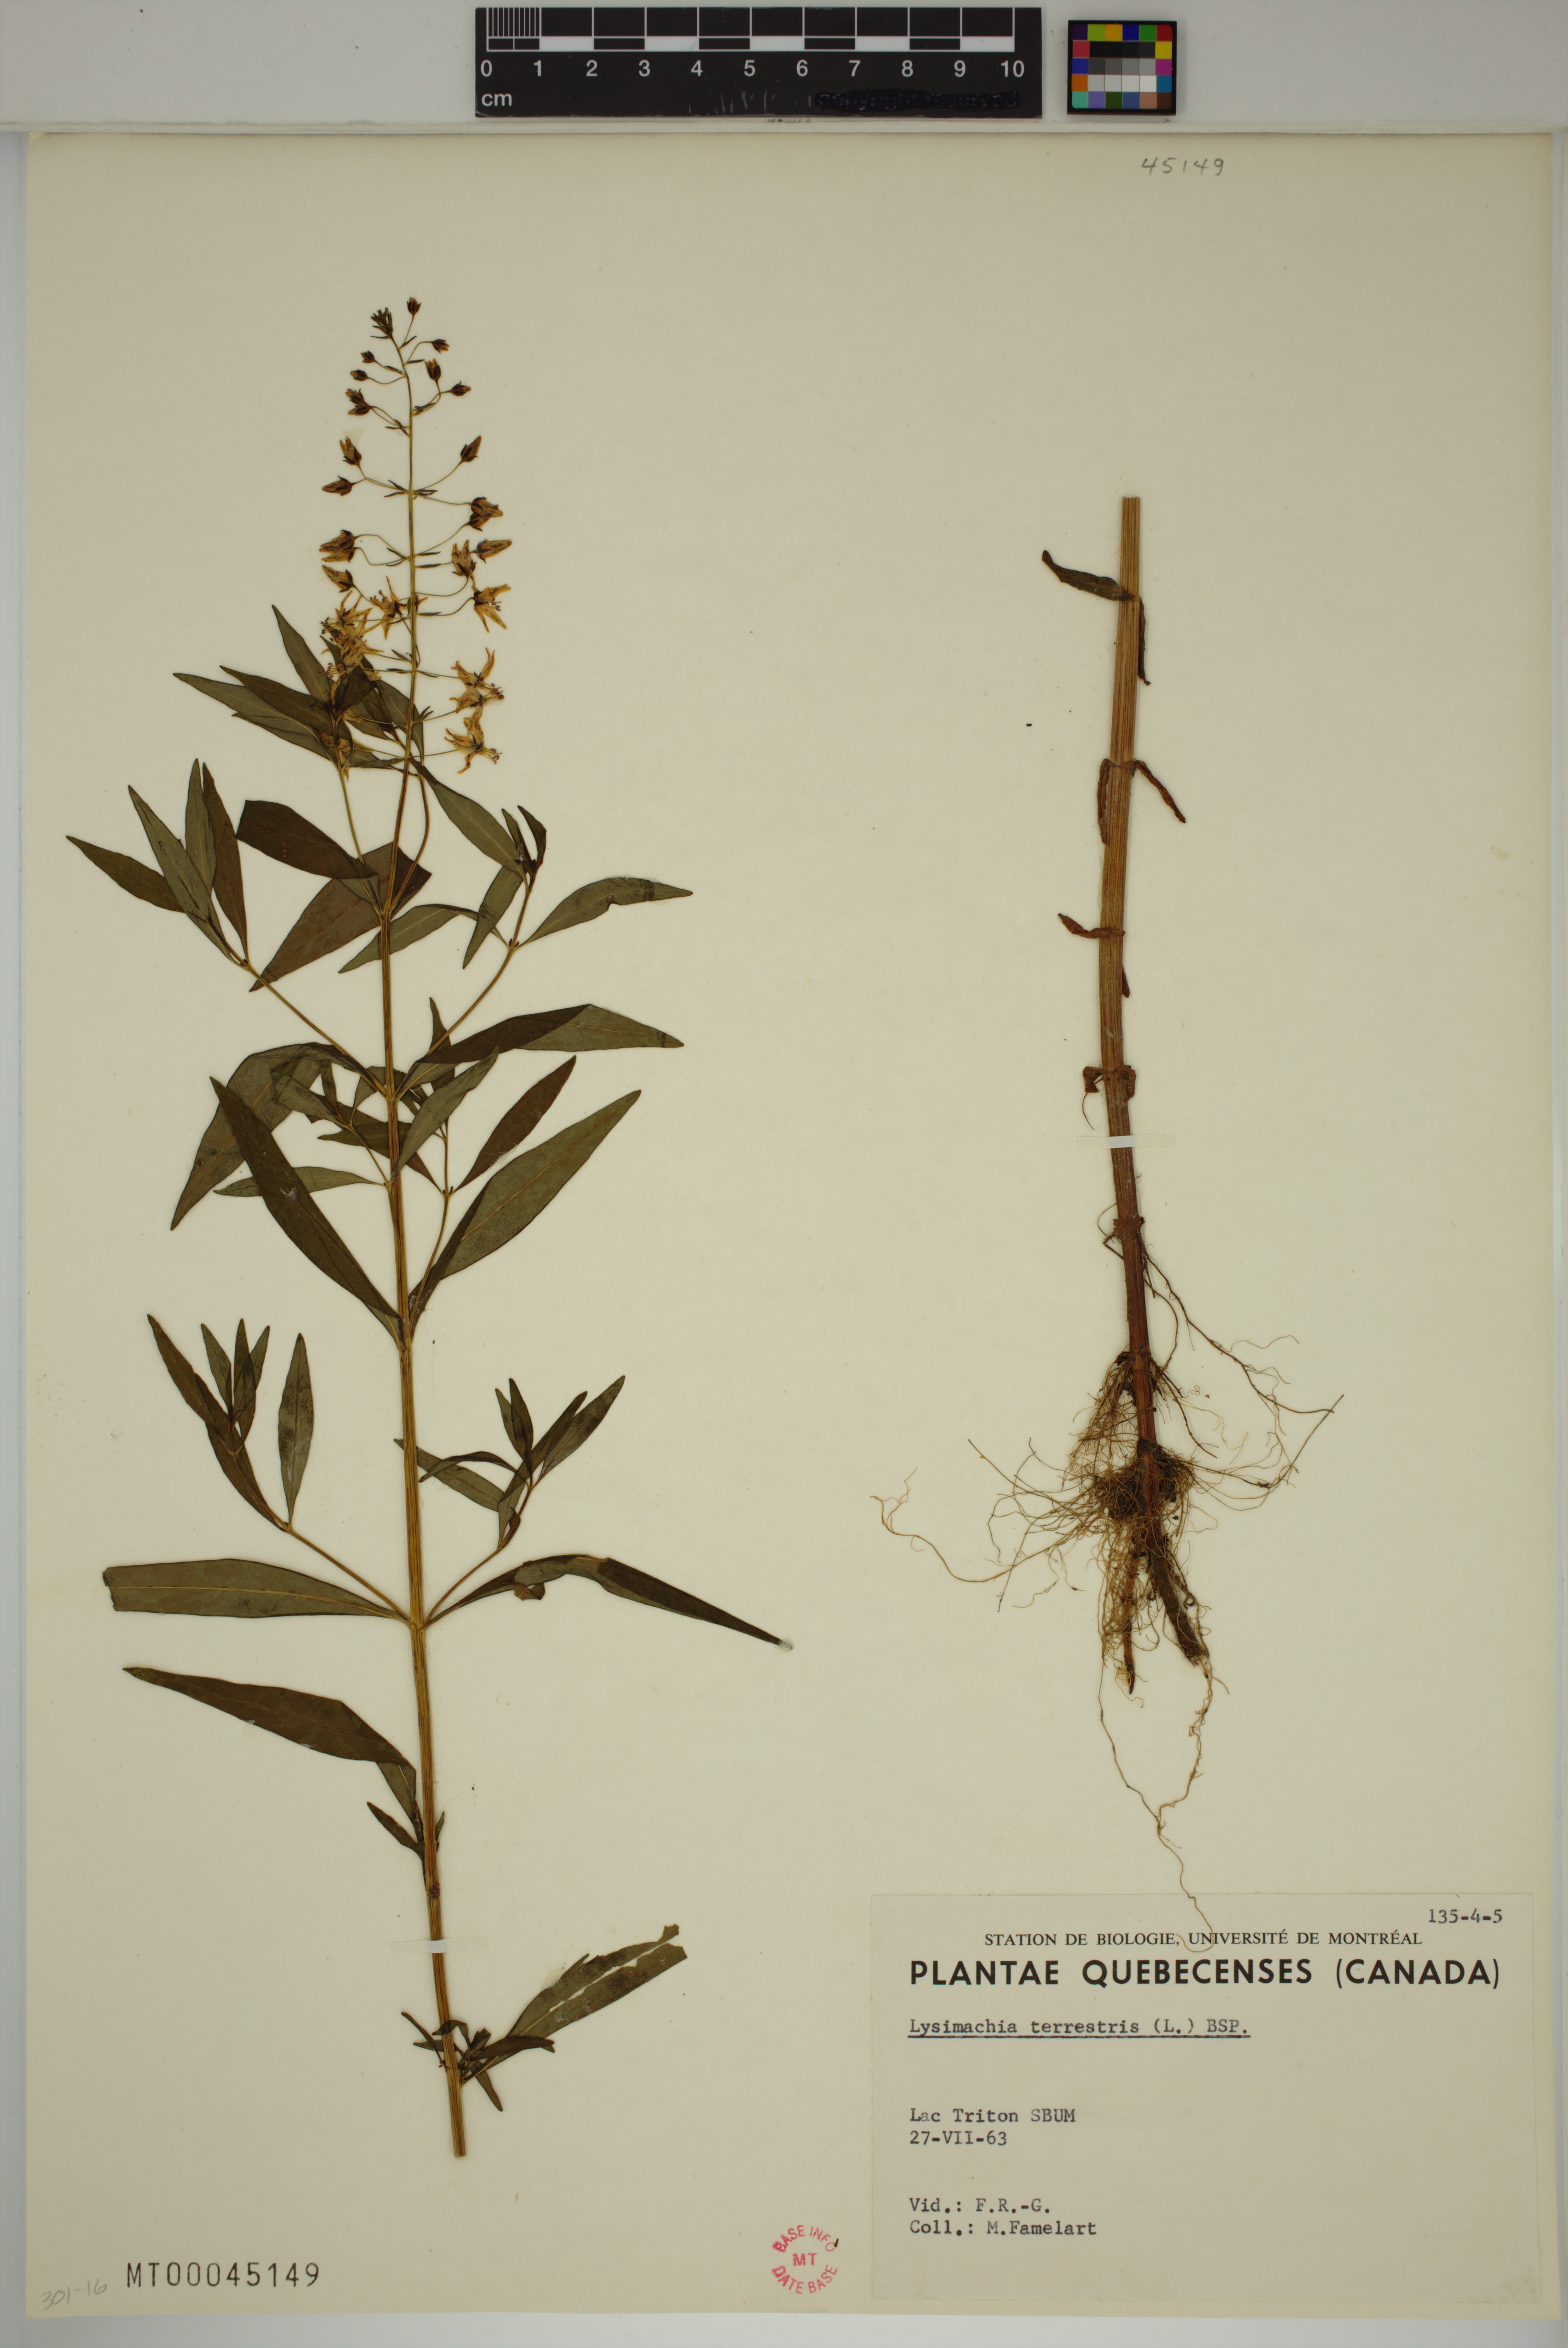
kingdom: Plantae
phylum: Tracheophyta
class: Magnoliopsida
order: Ericales
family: Primulaceae
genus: Lysimachia
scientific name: Lysimachia terrestris
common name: Lake loosestrife
